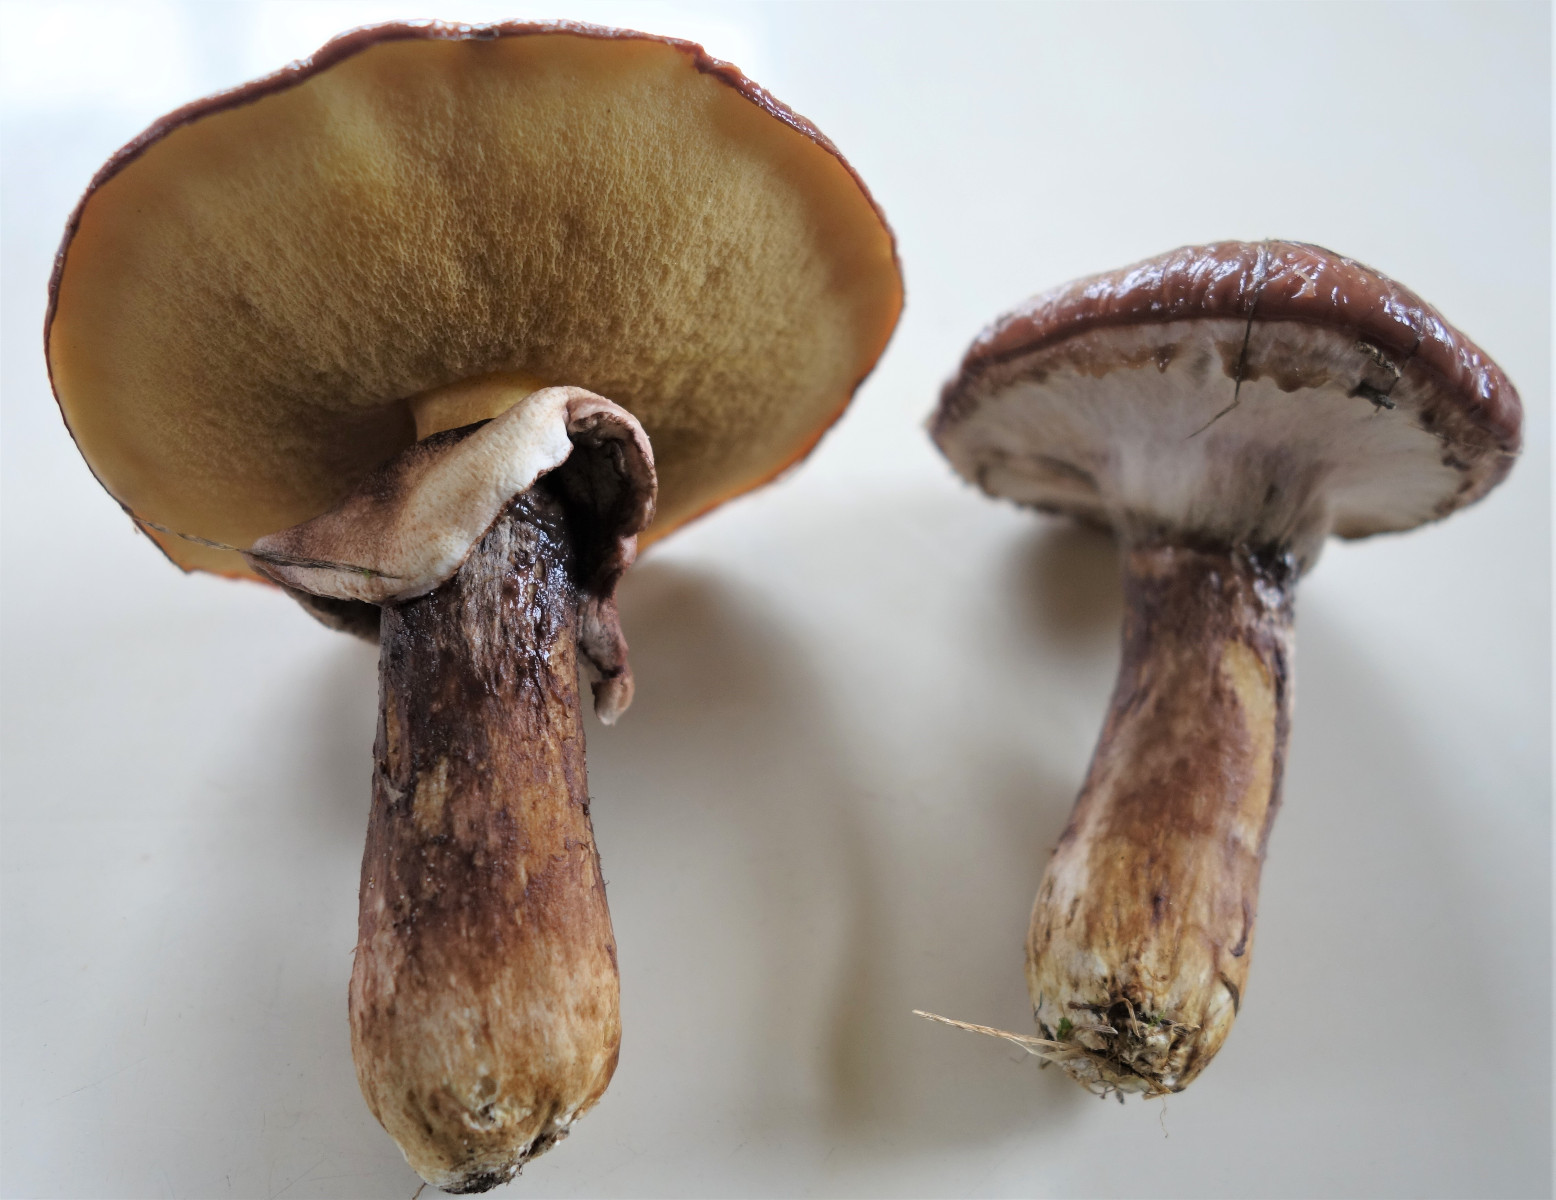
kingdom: Fungi
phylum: Basidiomycota
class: Agaricomycetes
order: Boletales
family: Suillaceae
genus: Suillus
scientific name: Suillus luteus
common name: brungul slimrørhat
